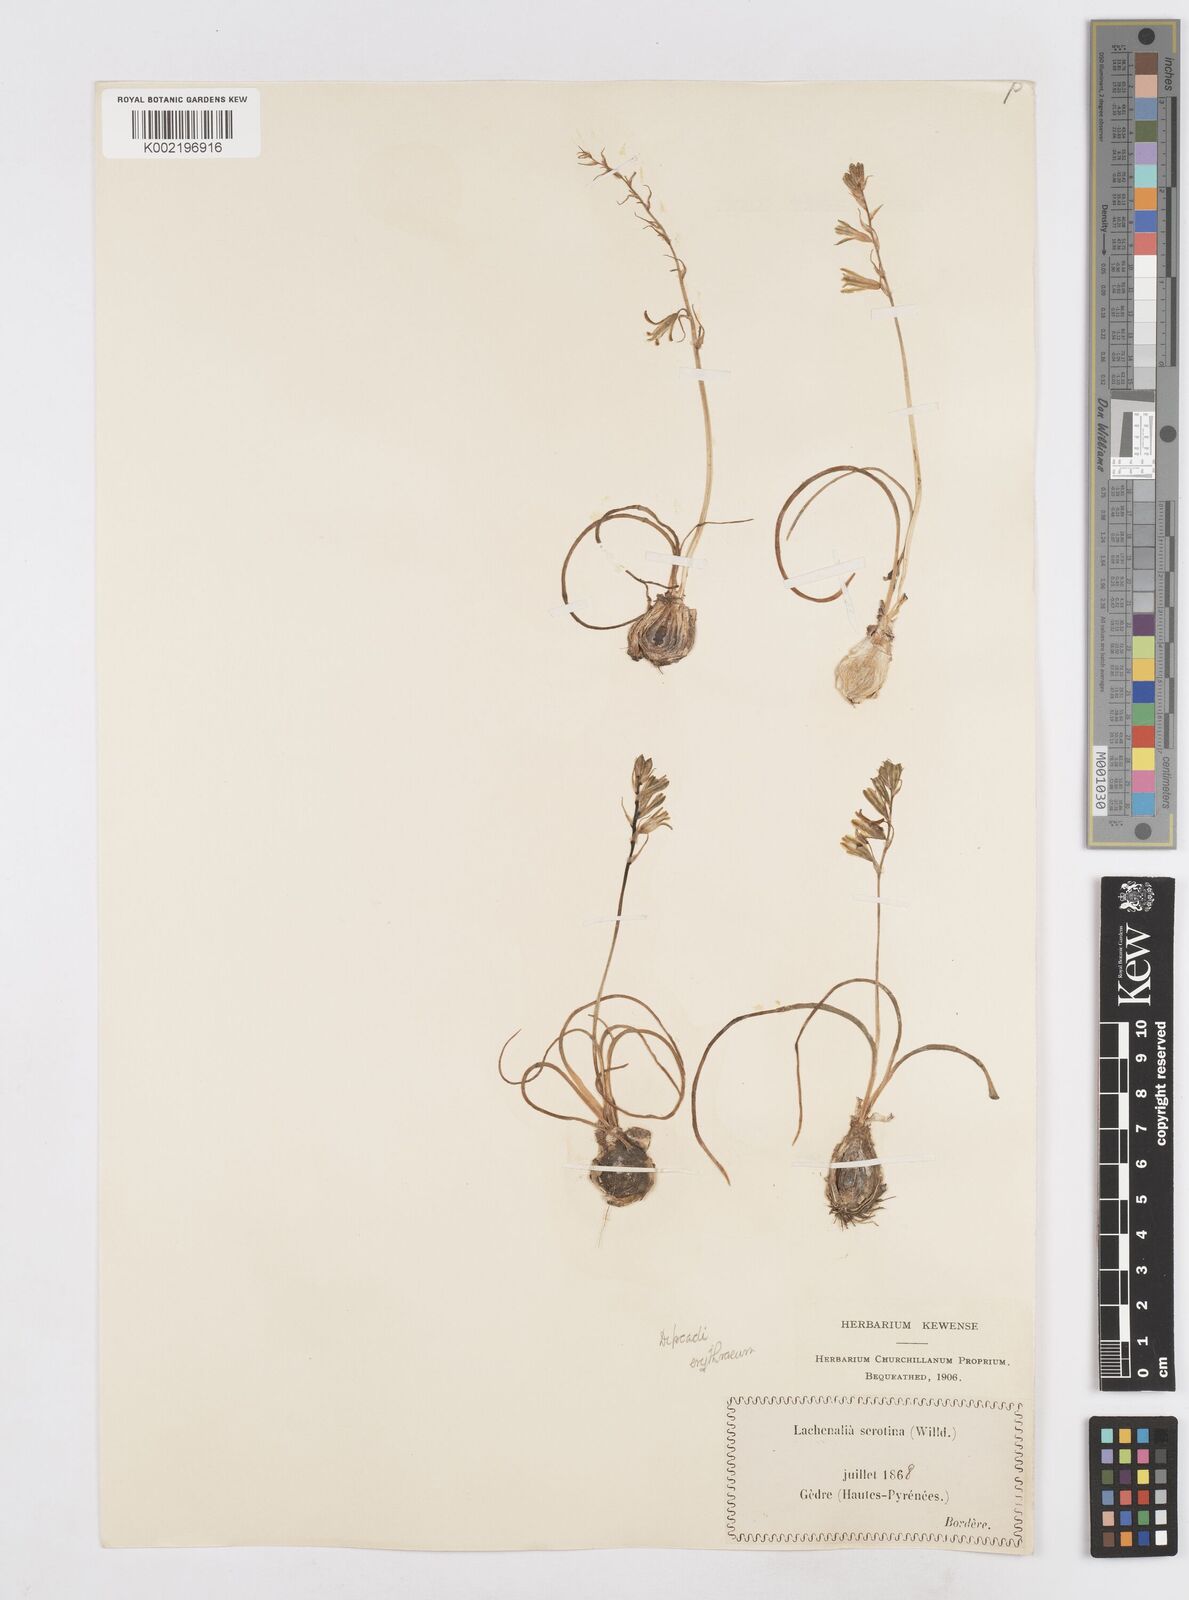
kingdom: Plantae
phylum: Tracheophyta
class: Liliopsida
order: Asparagales
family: Asparagaceae
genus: Dipcadi
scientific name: Dipcadi serotinum
